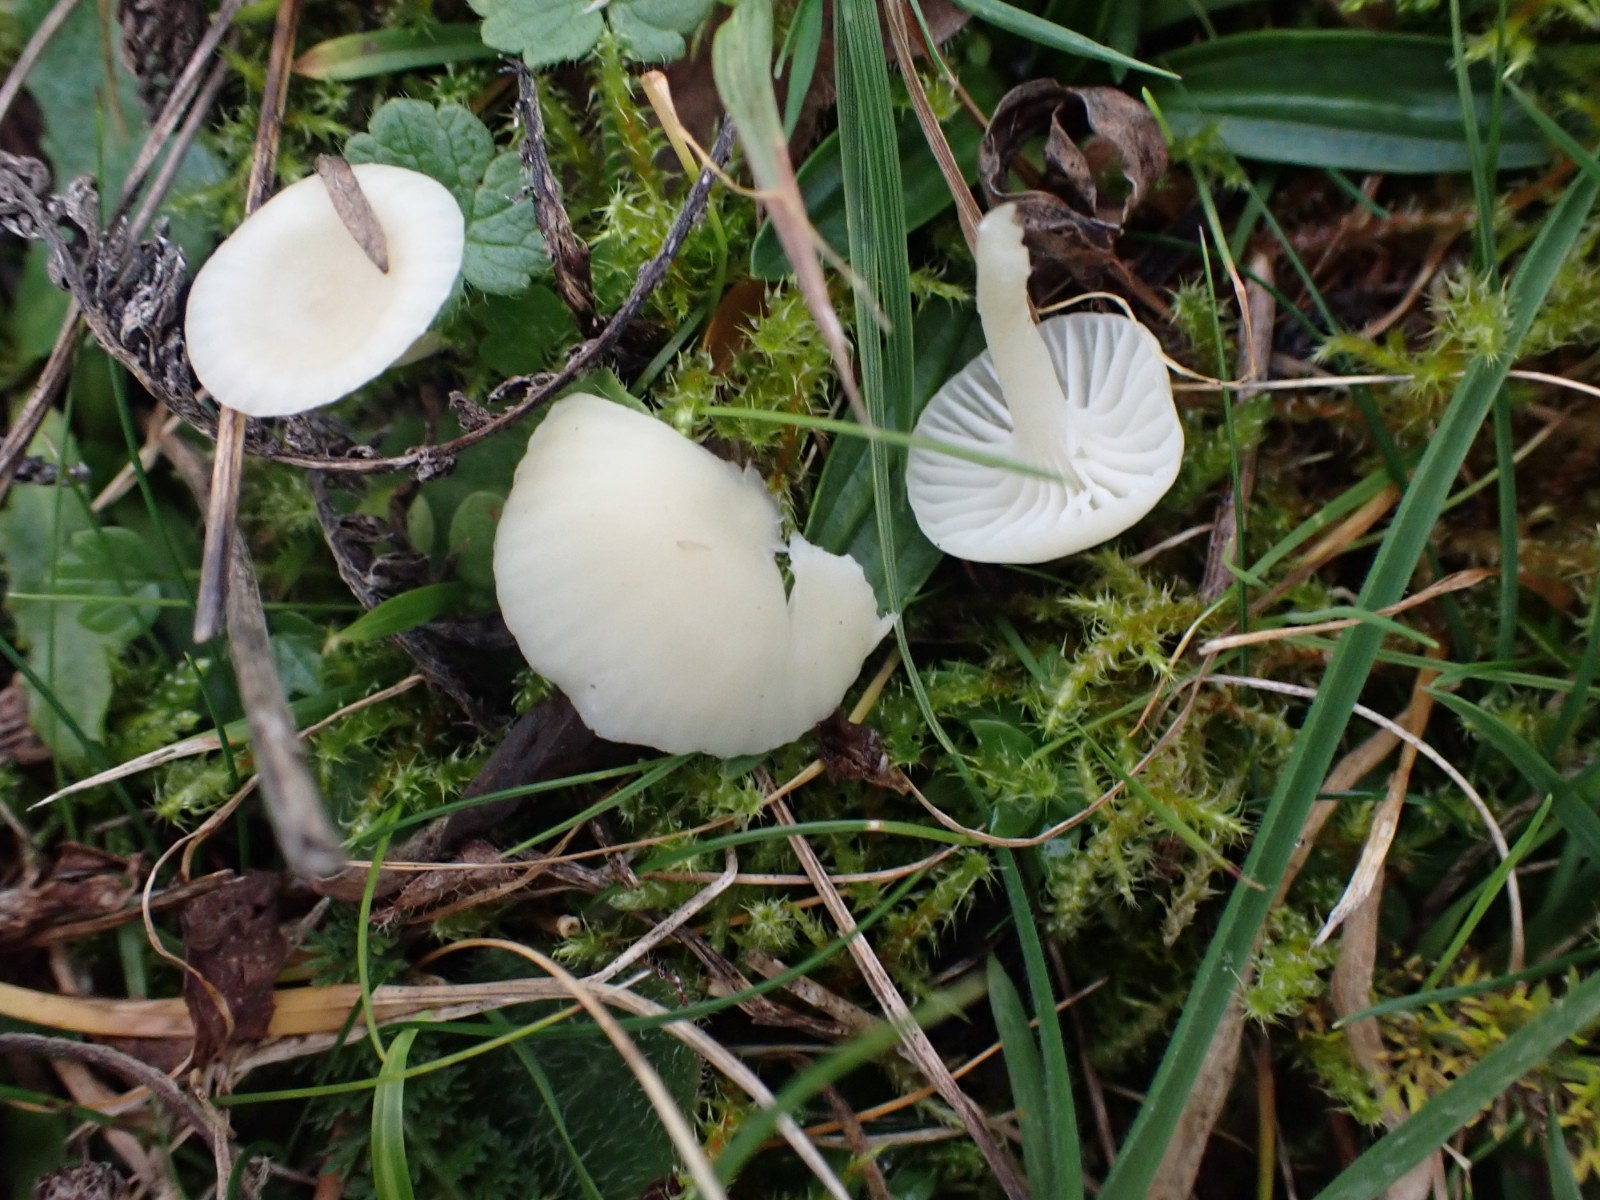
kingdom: Fungi
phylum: Basidiomycota
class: Agaricomycetes
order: Agaricales
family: Hygrophoraceae
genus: Cuphophyllus
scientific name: Cuphophyllus russocoriaceus
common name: ruslæder-vokshat
